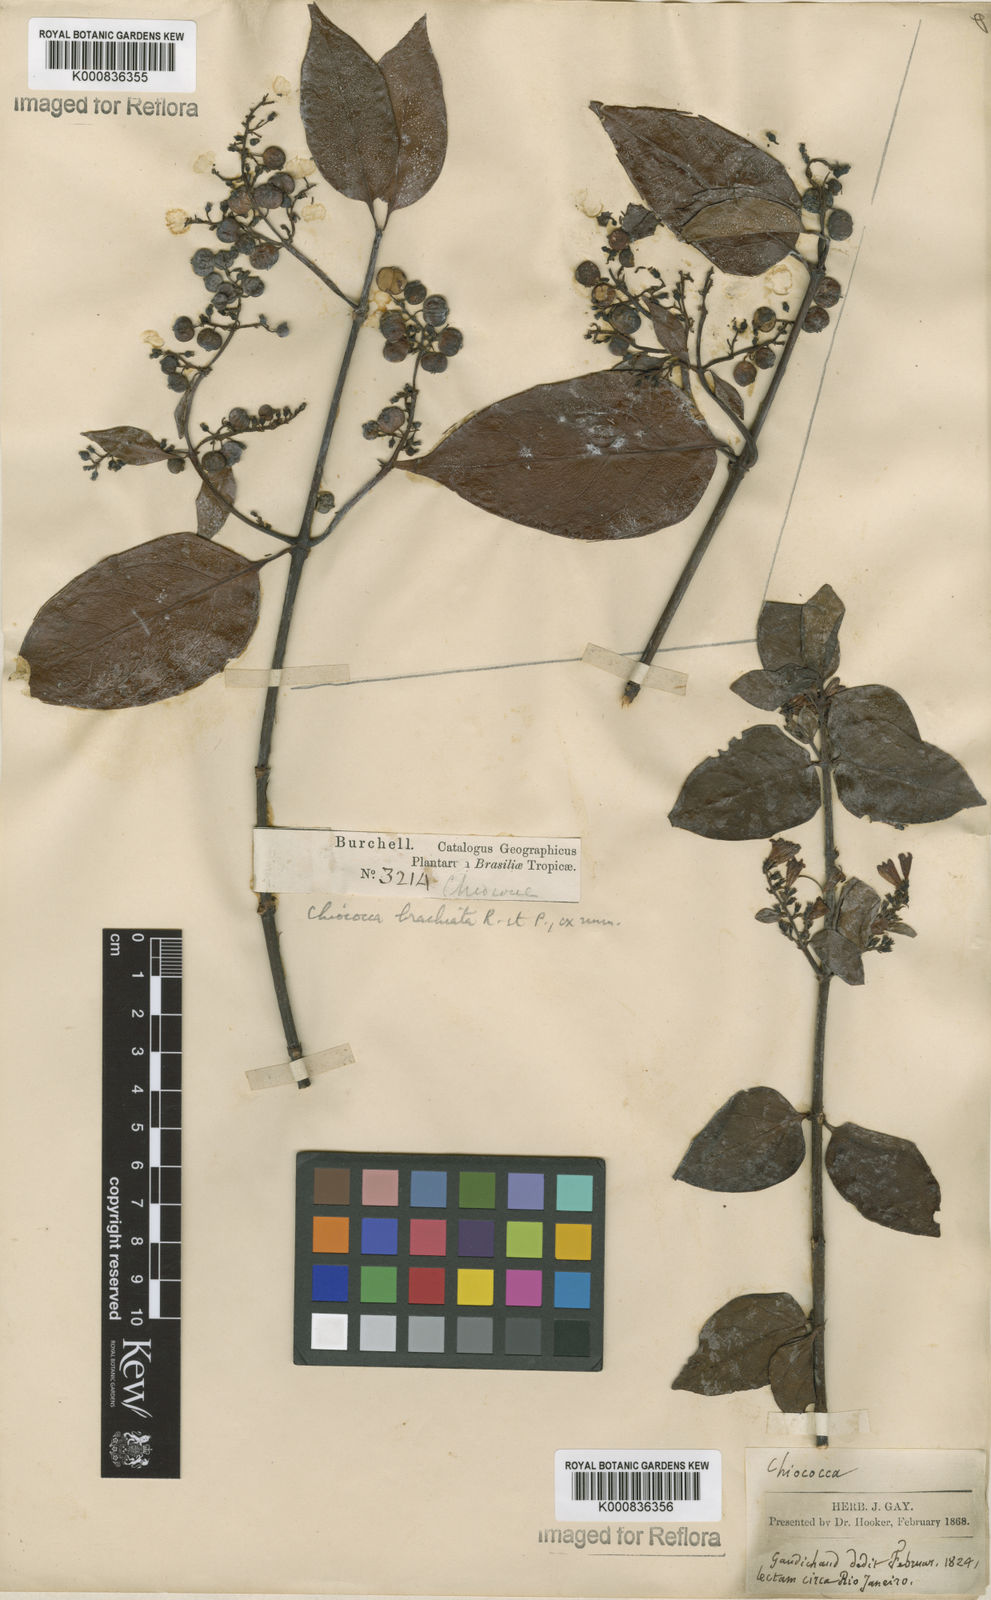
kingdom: Plantae
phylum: Tracheophyta
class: Magnoliopsida
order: Gentianales
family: Rubiaceae
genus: Chiococca
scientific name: Chiococca alba
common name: Snowberry
